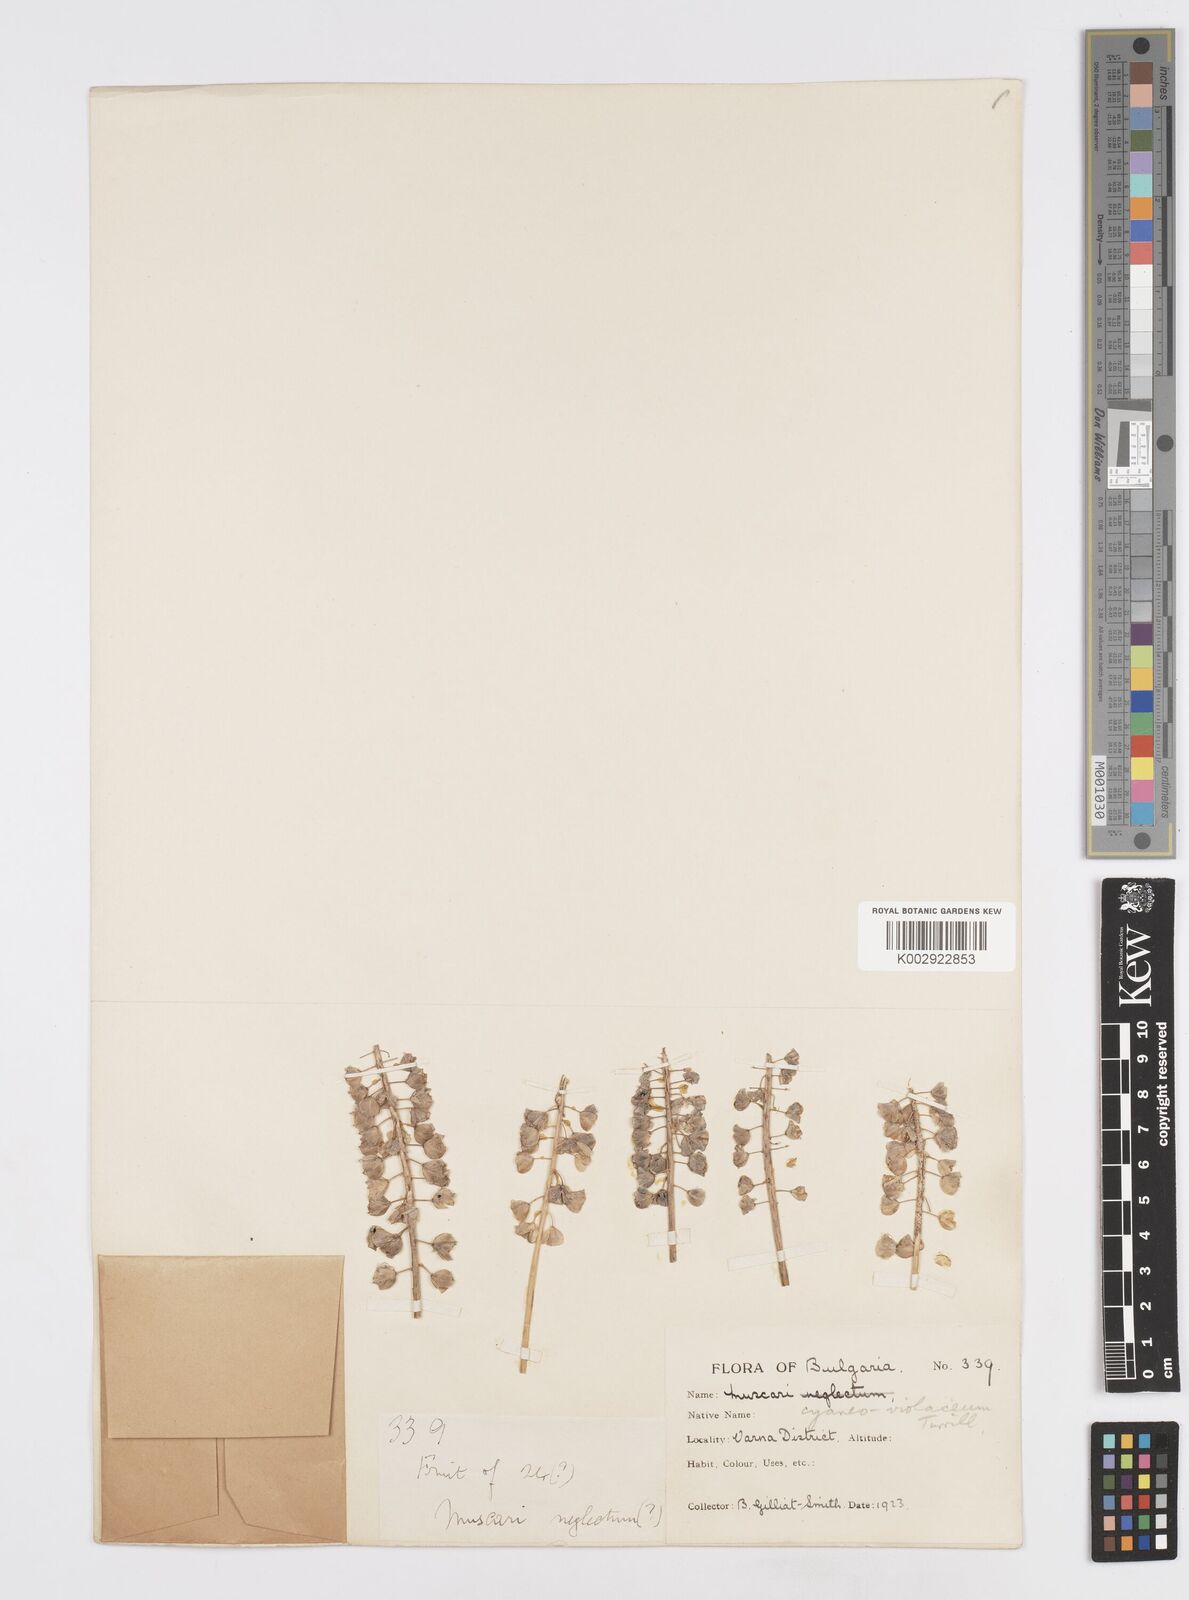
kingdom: Plantae
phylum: Tracheophyta
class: Liliopsida
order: Asparagales
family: Asparagaceae
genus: Muscari
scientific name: Muscari armeniacum
